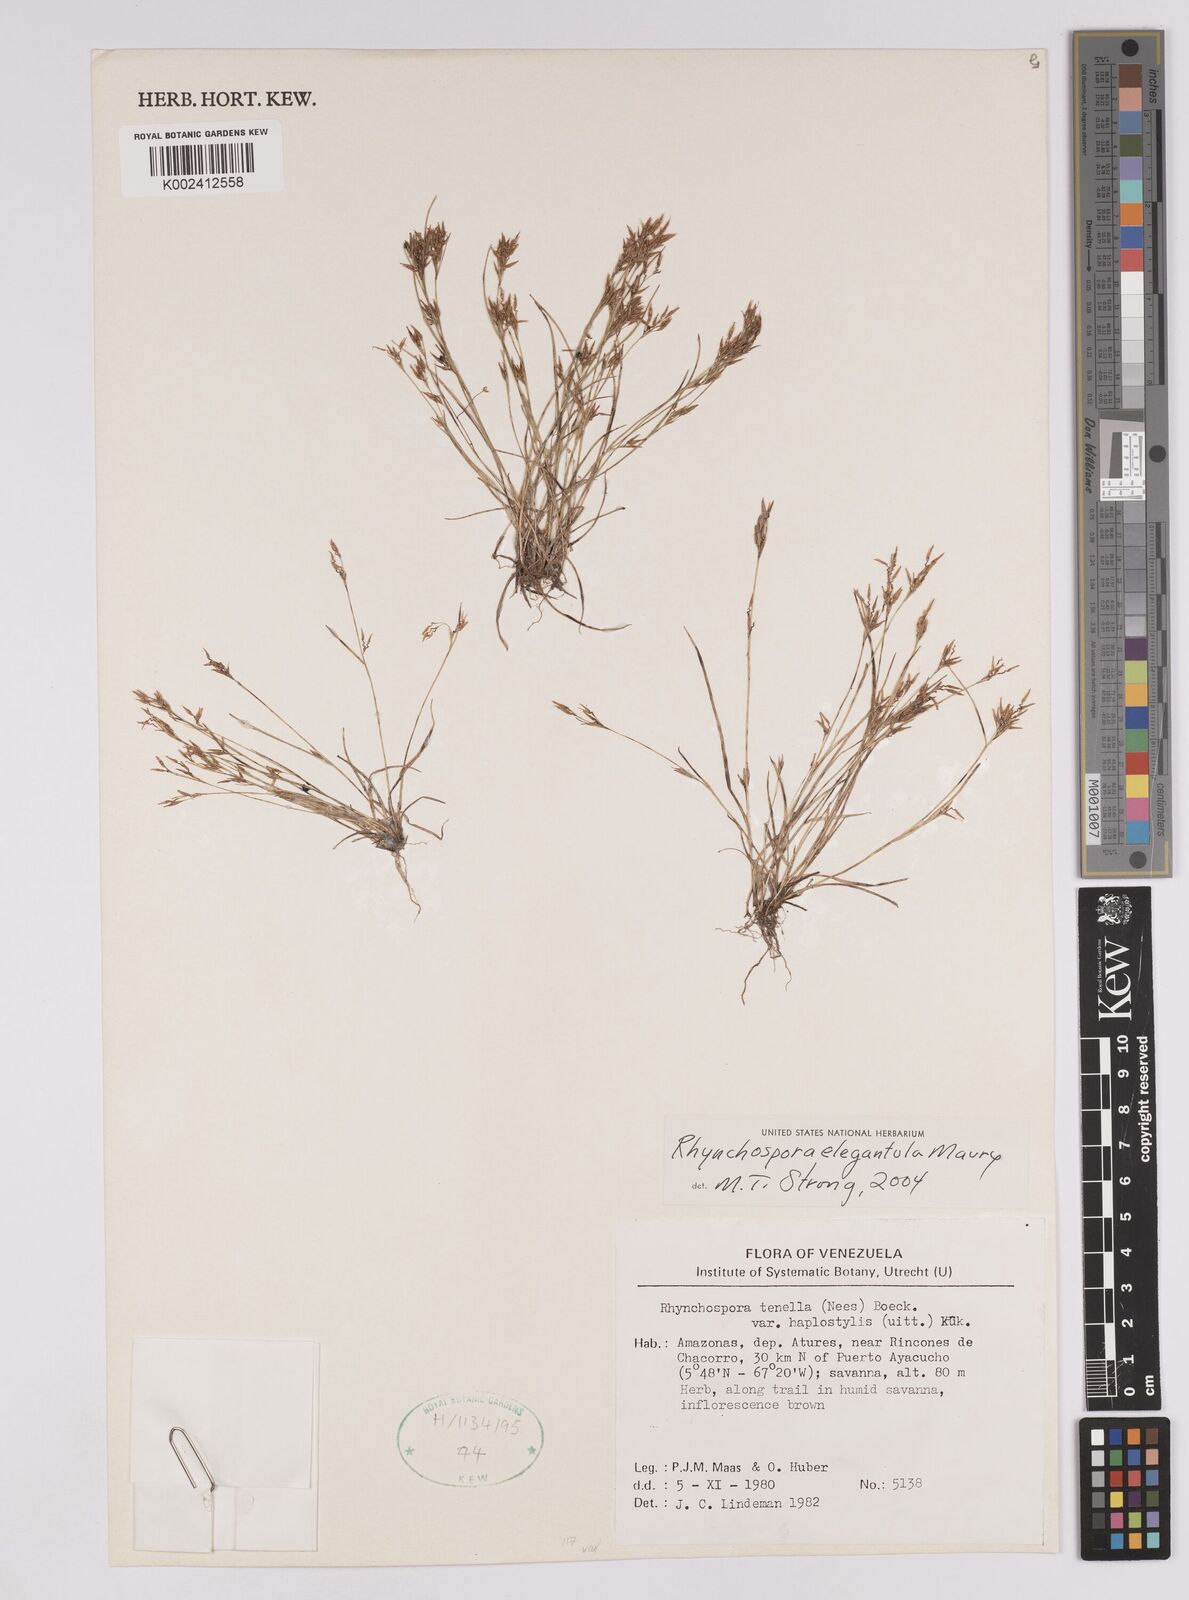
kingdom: Plantae
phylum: Tracheophyta
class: Liliopsida
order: Poales
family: Cyperaceae
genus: Rhynchospora
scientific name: Rhynchospora elegantula
